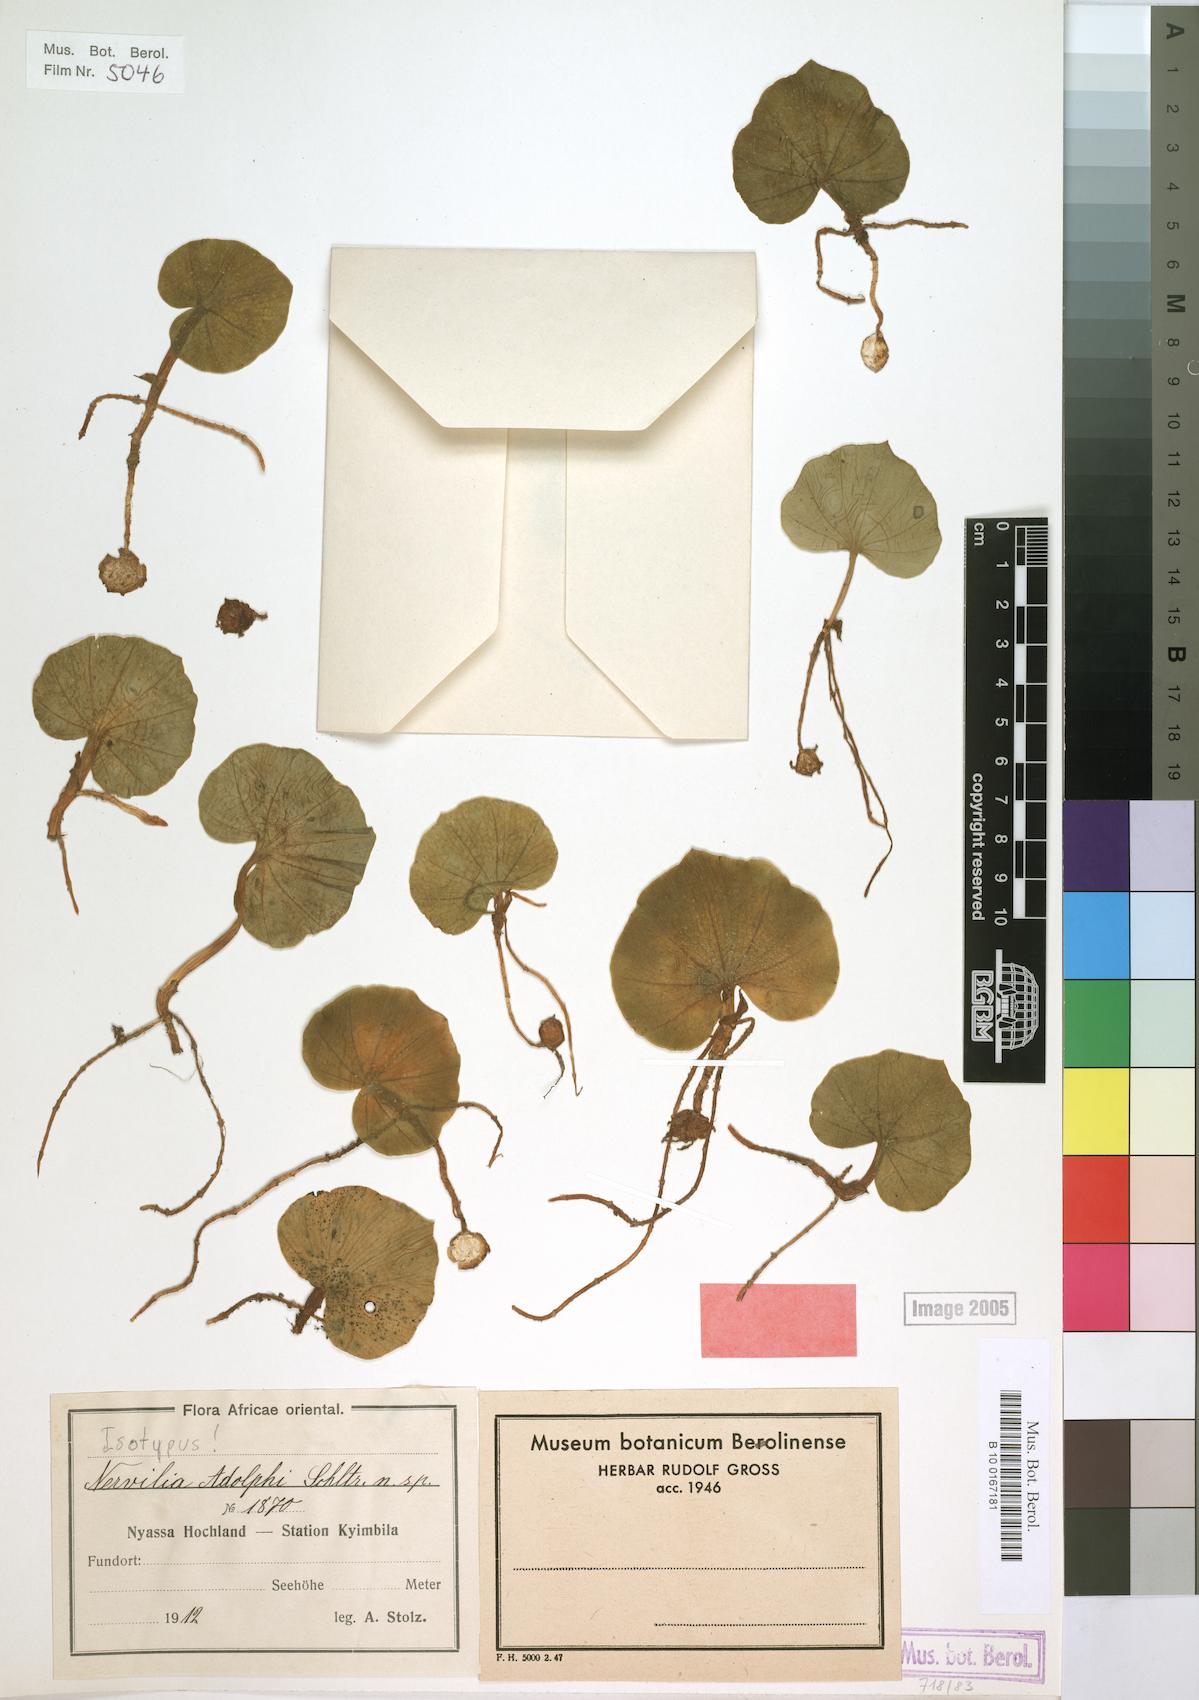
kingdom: Plantae
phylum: Tracheophyta
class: Liliopsida
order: Asparagales
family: Orchidaceae
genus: Nervilia
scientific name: Nervilia adolphi
